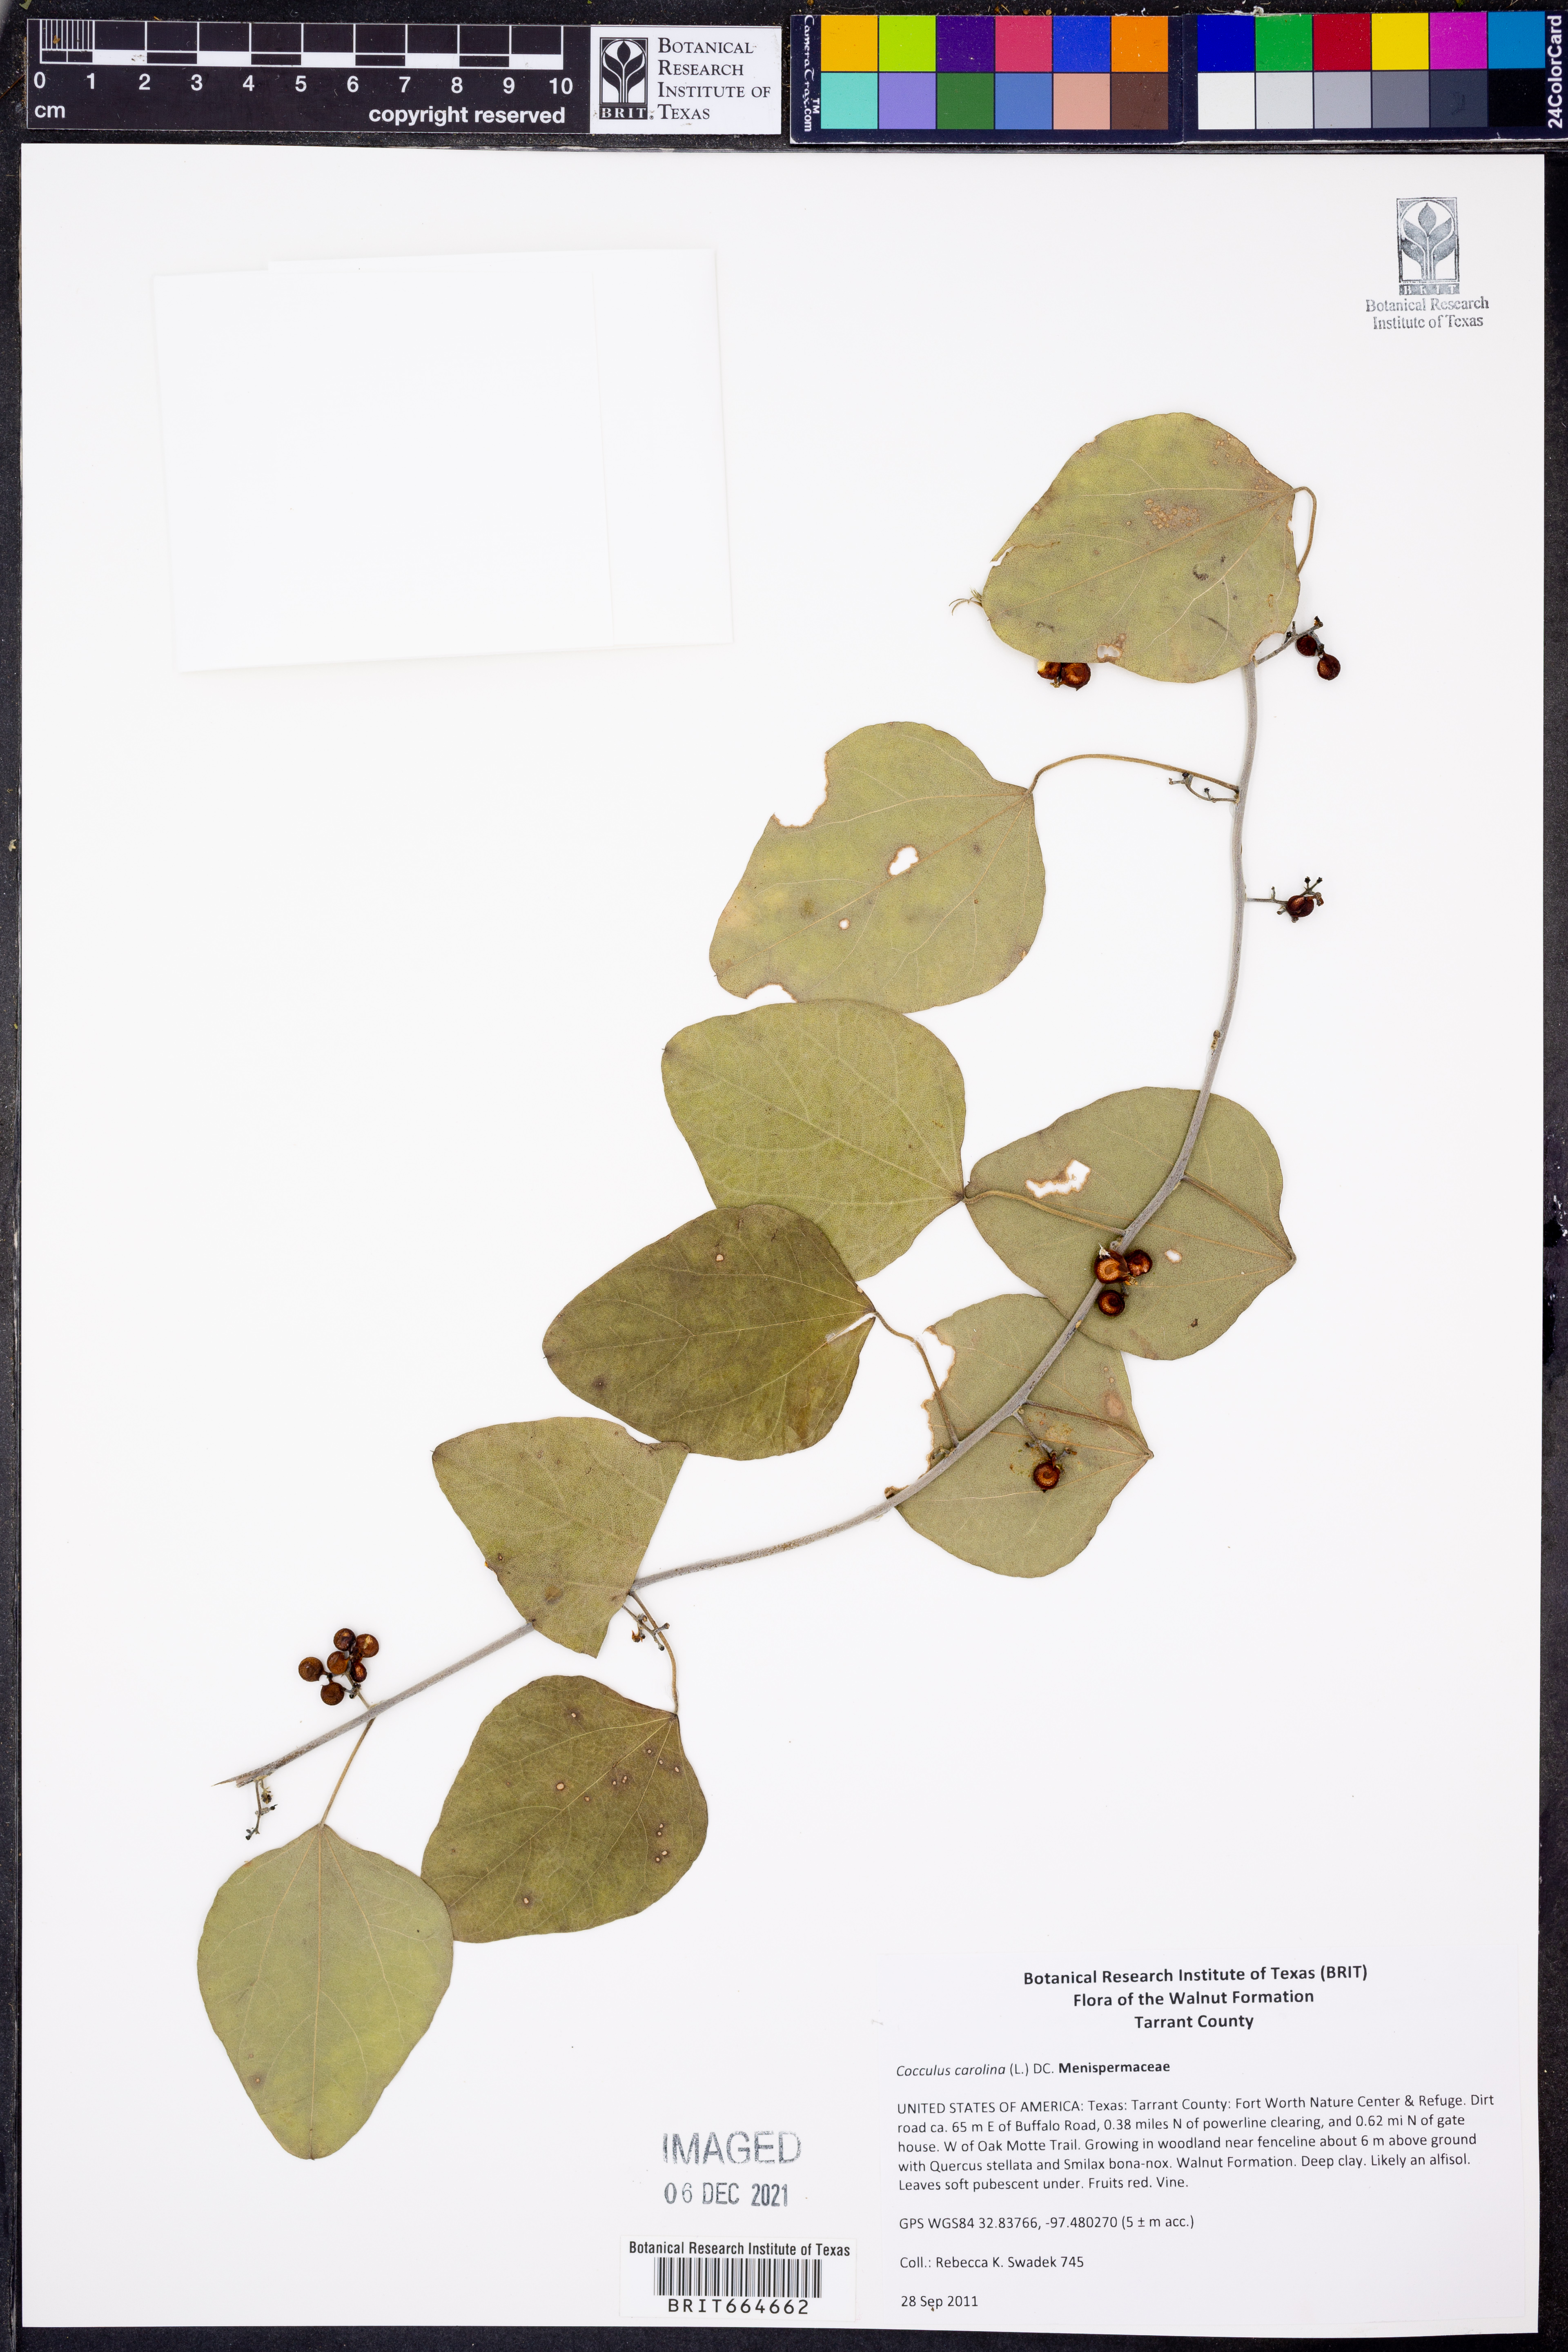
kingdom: Plantae
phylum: Tracheophyta
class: Magnoliopsida
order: Ranunculales
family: Menispermaceae
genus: Cocculus
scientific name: Cocculus carolinus
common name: Carolina moonseed
